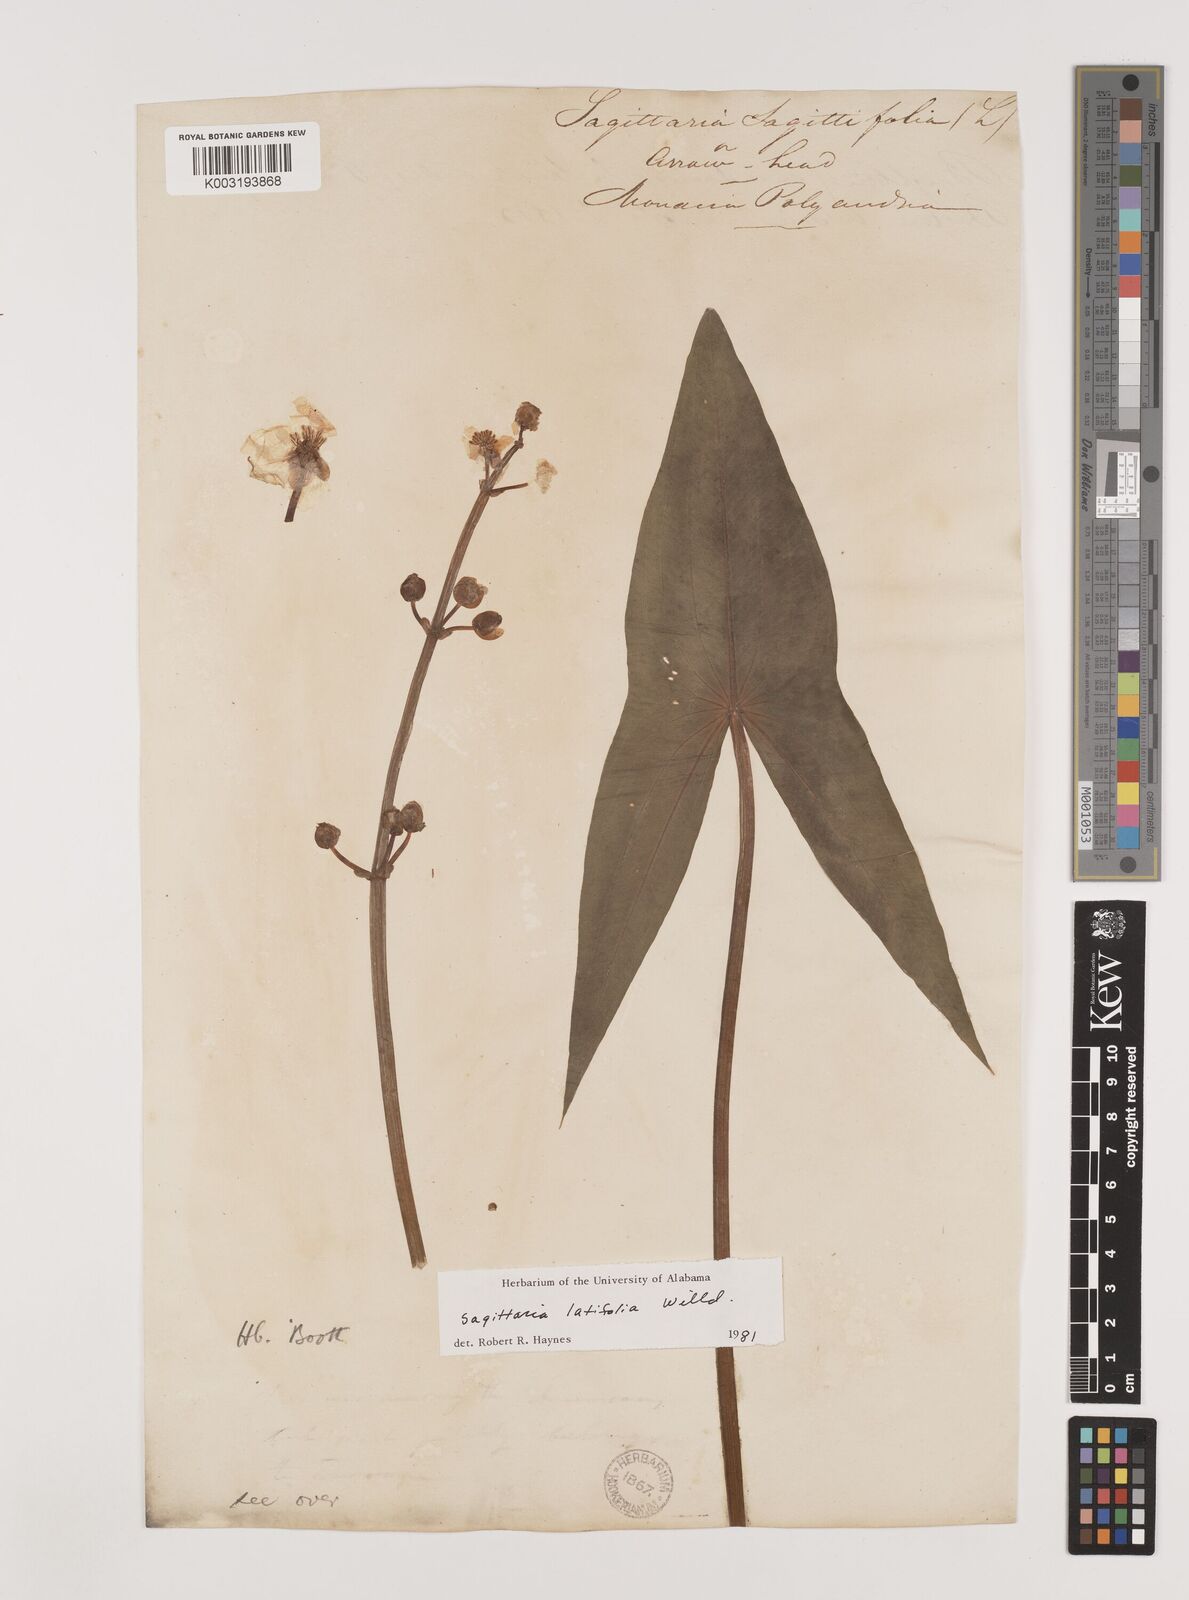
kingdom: Plantae
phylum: Tracheophyta
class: Liliopsida
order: Alismatales
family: Alismataceae
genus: Sagittaria
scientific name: Sagittaria latifolia
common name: Duck-potato
